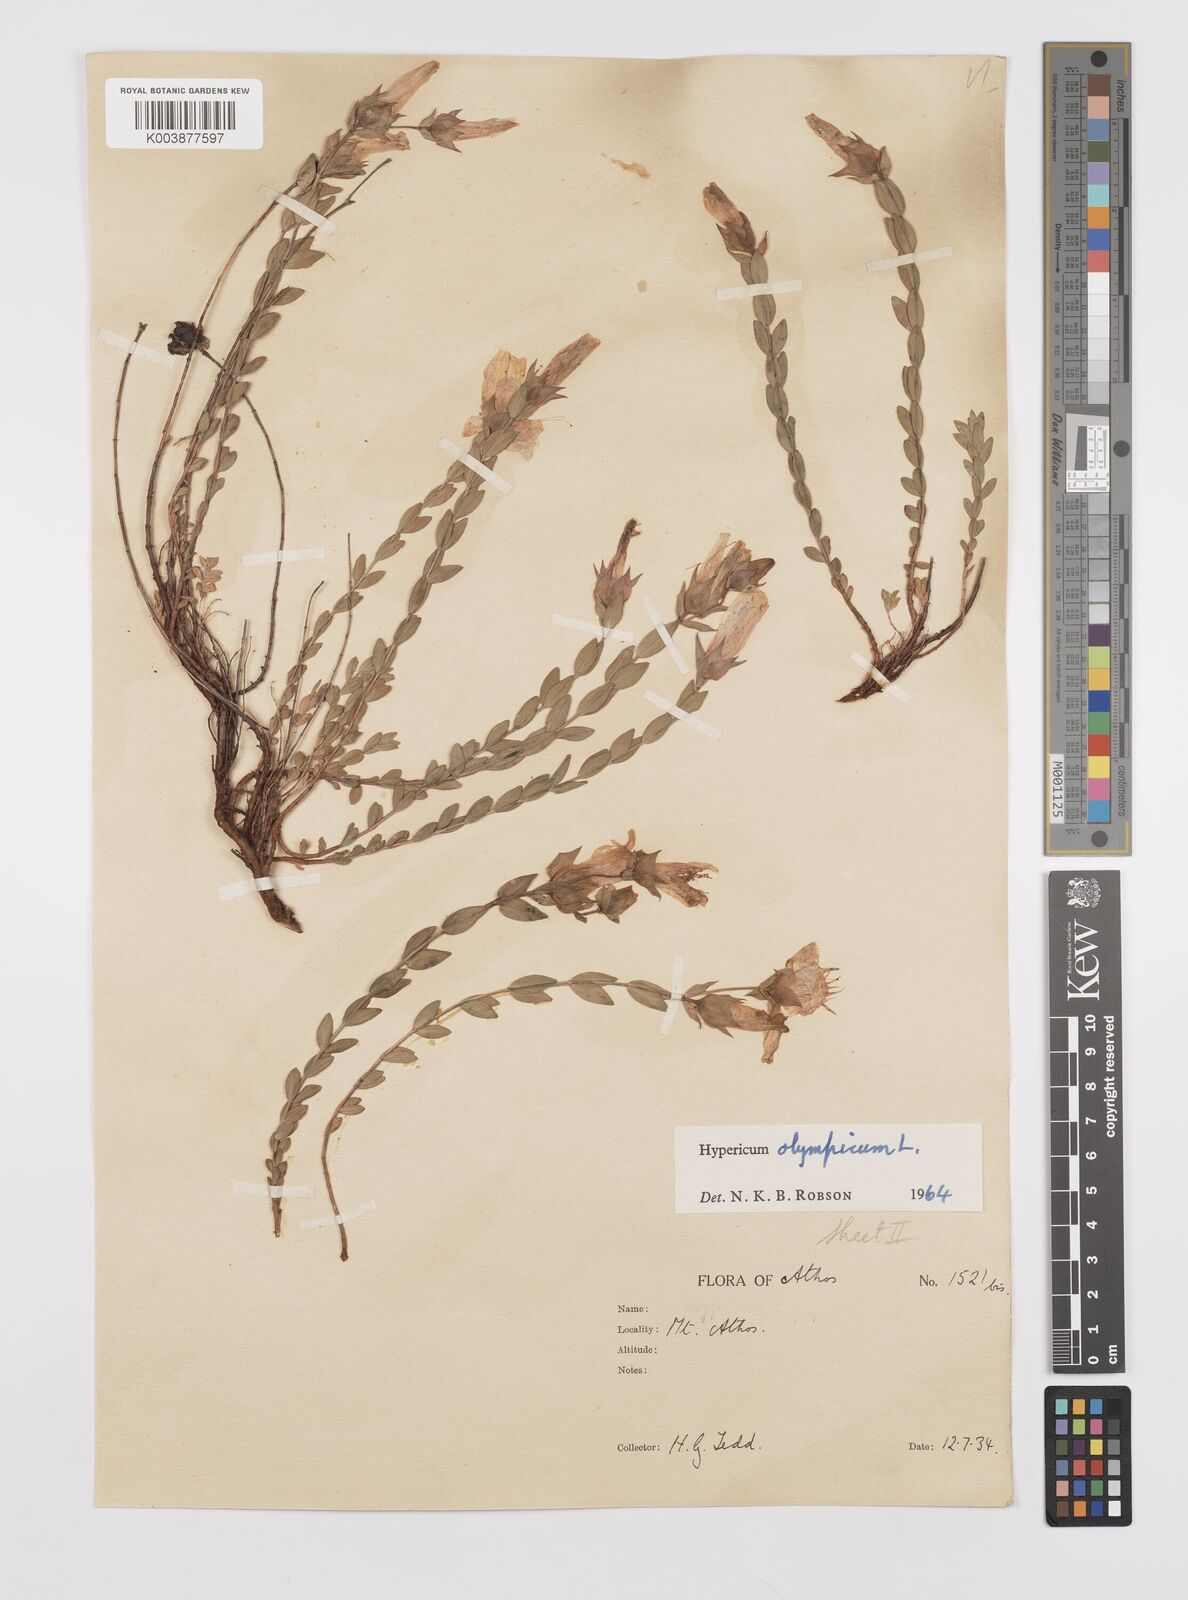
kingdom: Plantae
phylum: Tracheophyta
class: Magnoliopsida
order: Malpighiales
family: Hypericaceae
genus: Hypericum
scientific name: Hypericum olympicum
